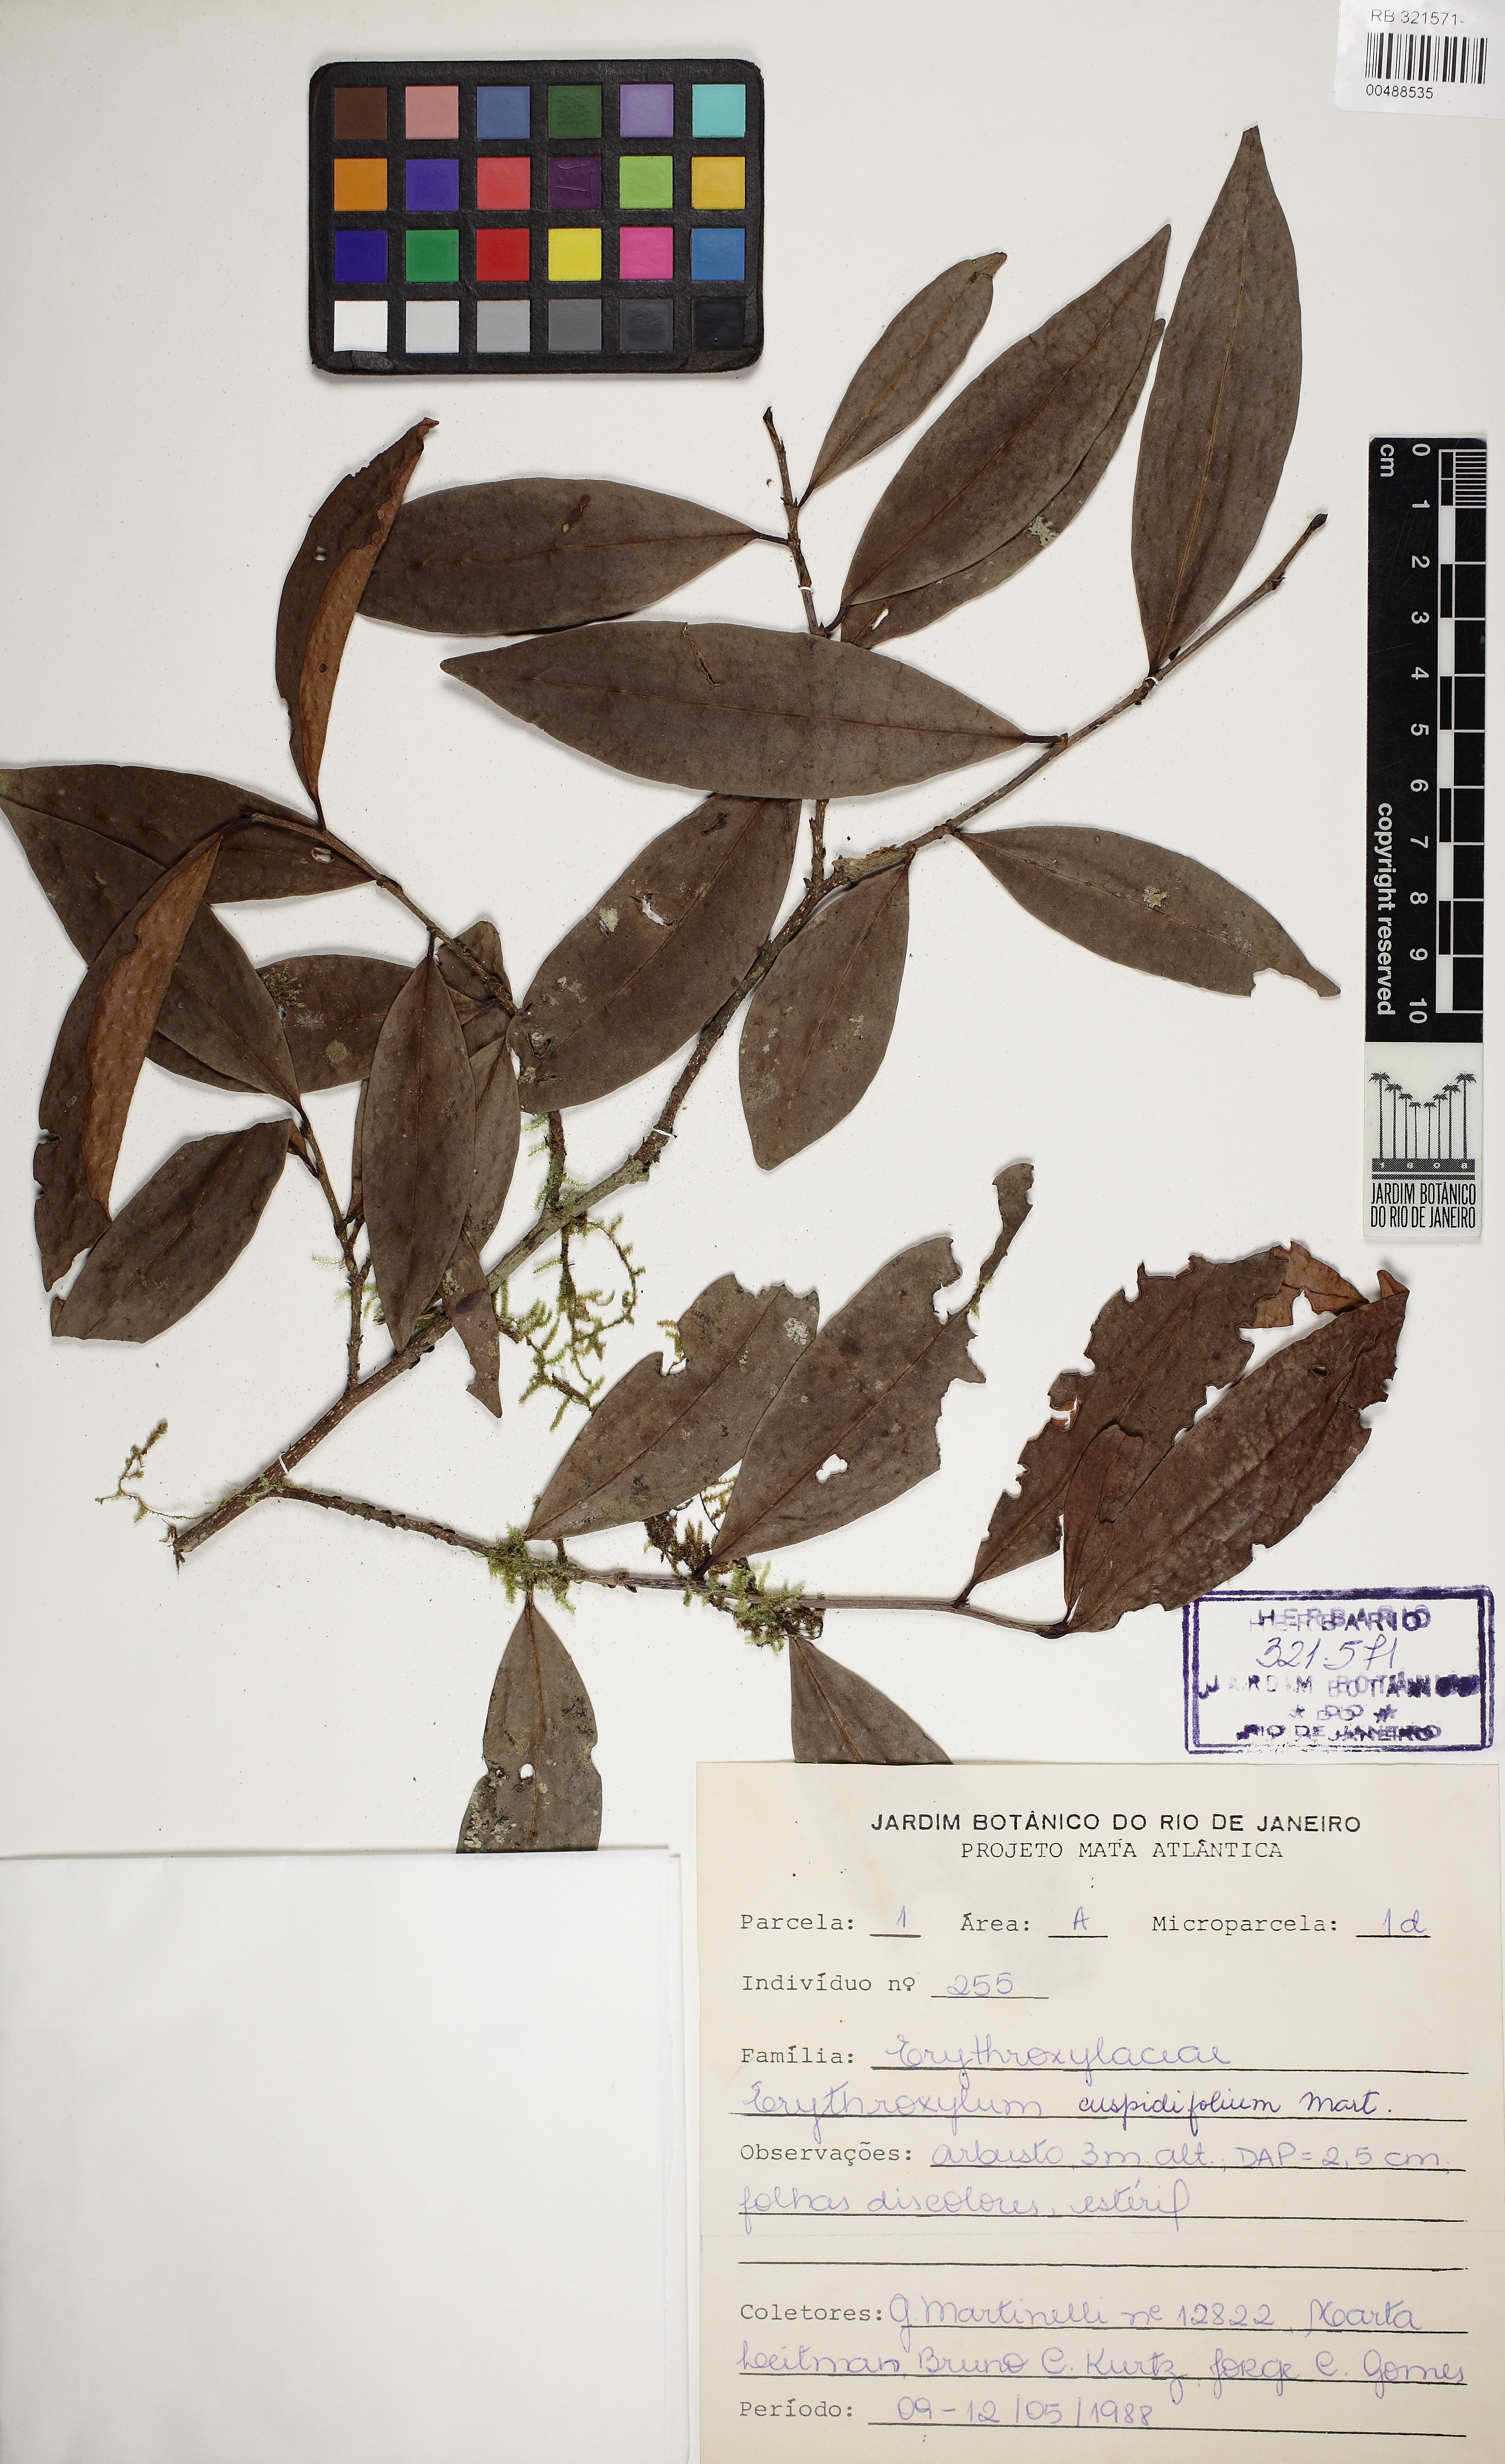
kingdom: Plantae
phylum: Tracheophyta
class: Magnoliopsida
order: Malpighiales
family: Erythroxylaceae
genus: Erythroxylum
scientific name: Erythroxylum cuspidifolium
